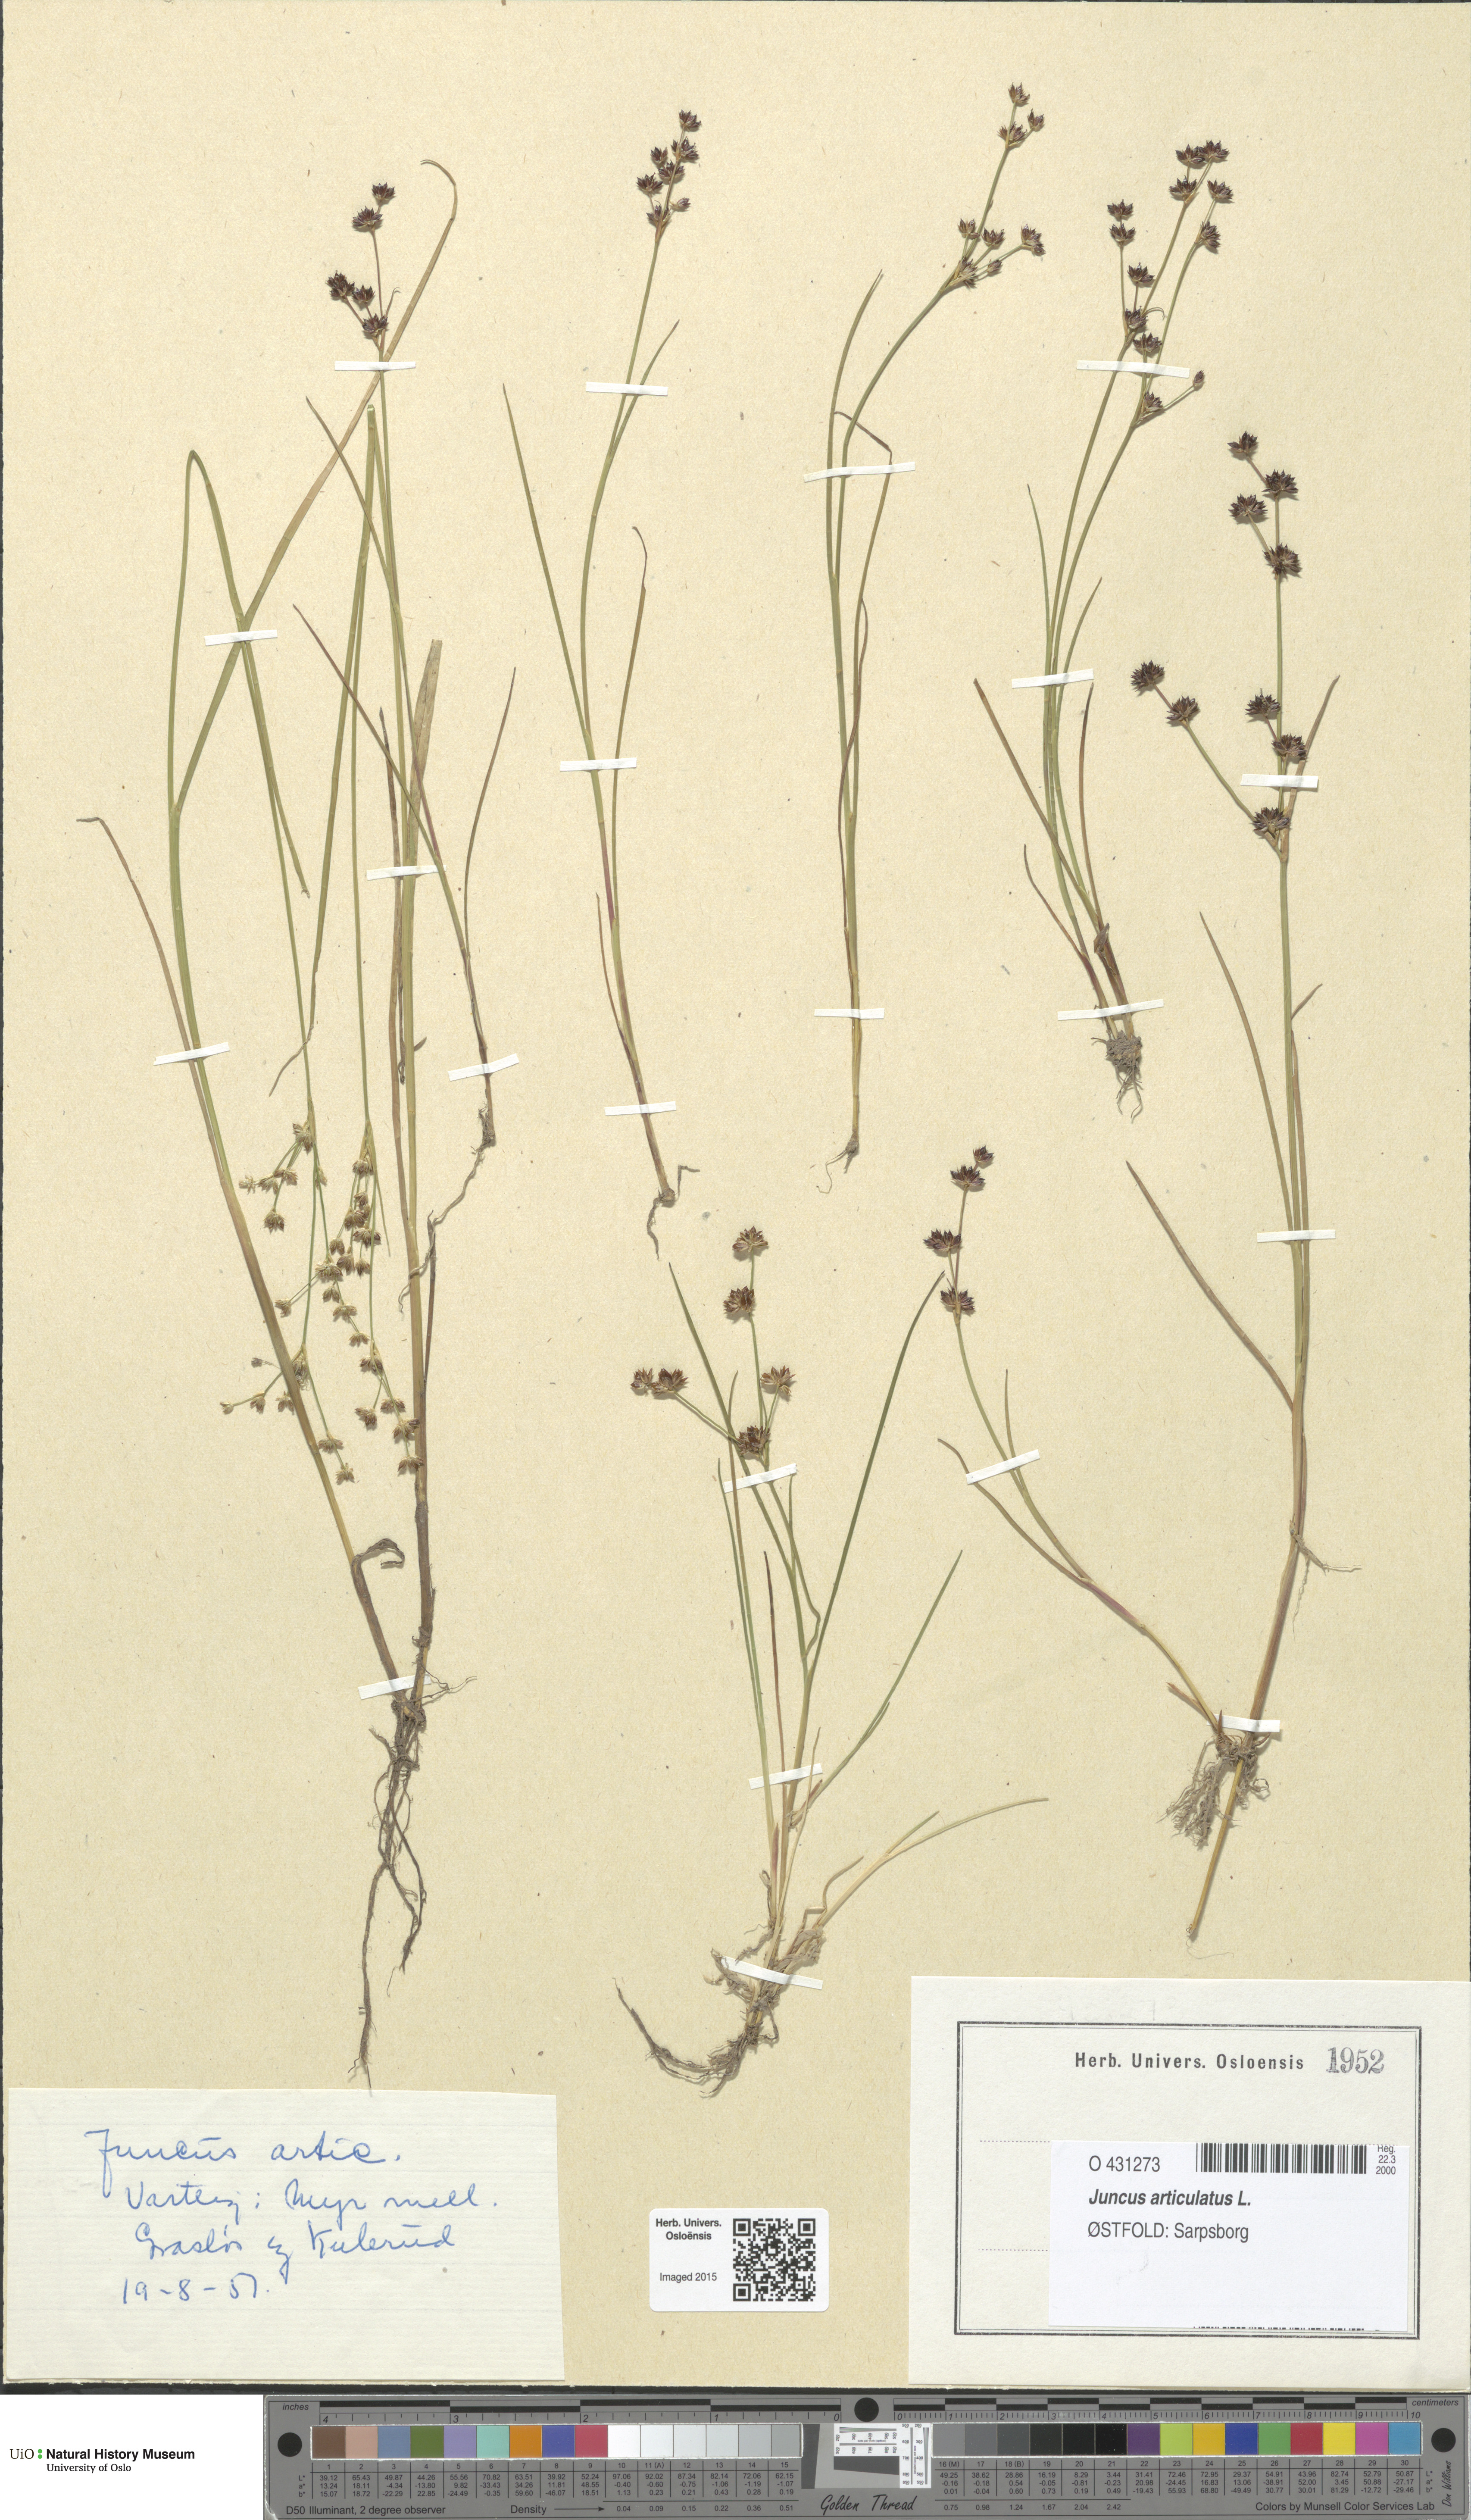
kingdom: Plantae
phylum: Tracheophyta
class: Liliopsida
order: Poales
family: Juncaceae
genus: Juncus
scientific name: Juncus articulatus
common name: Jointed rush
